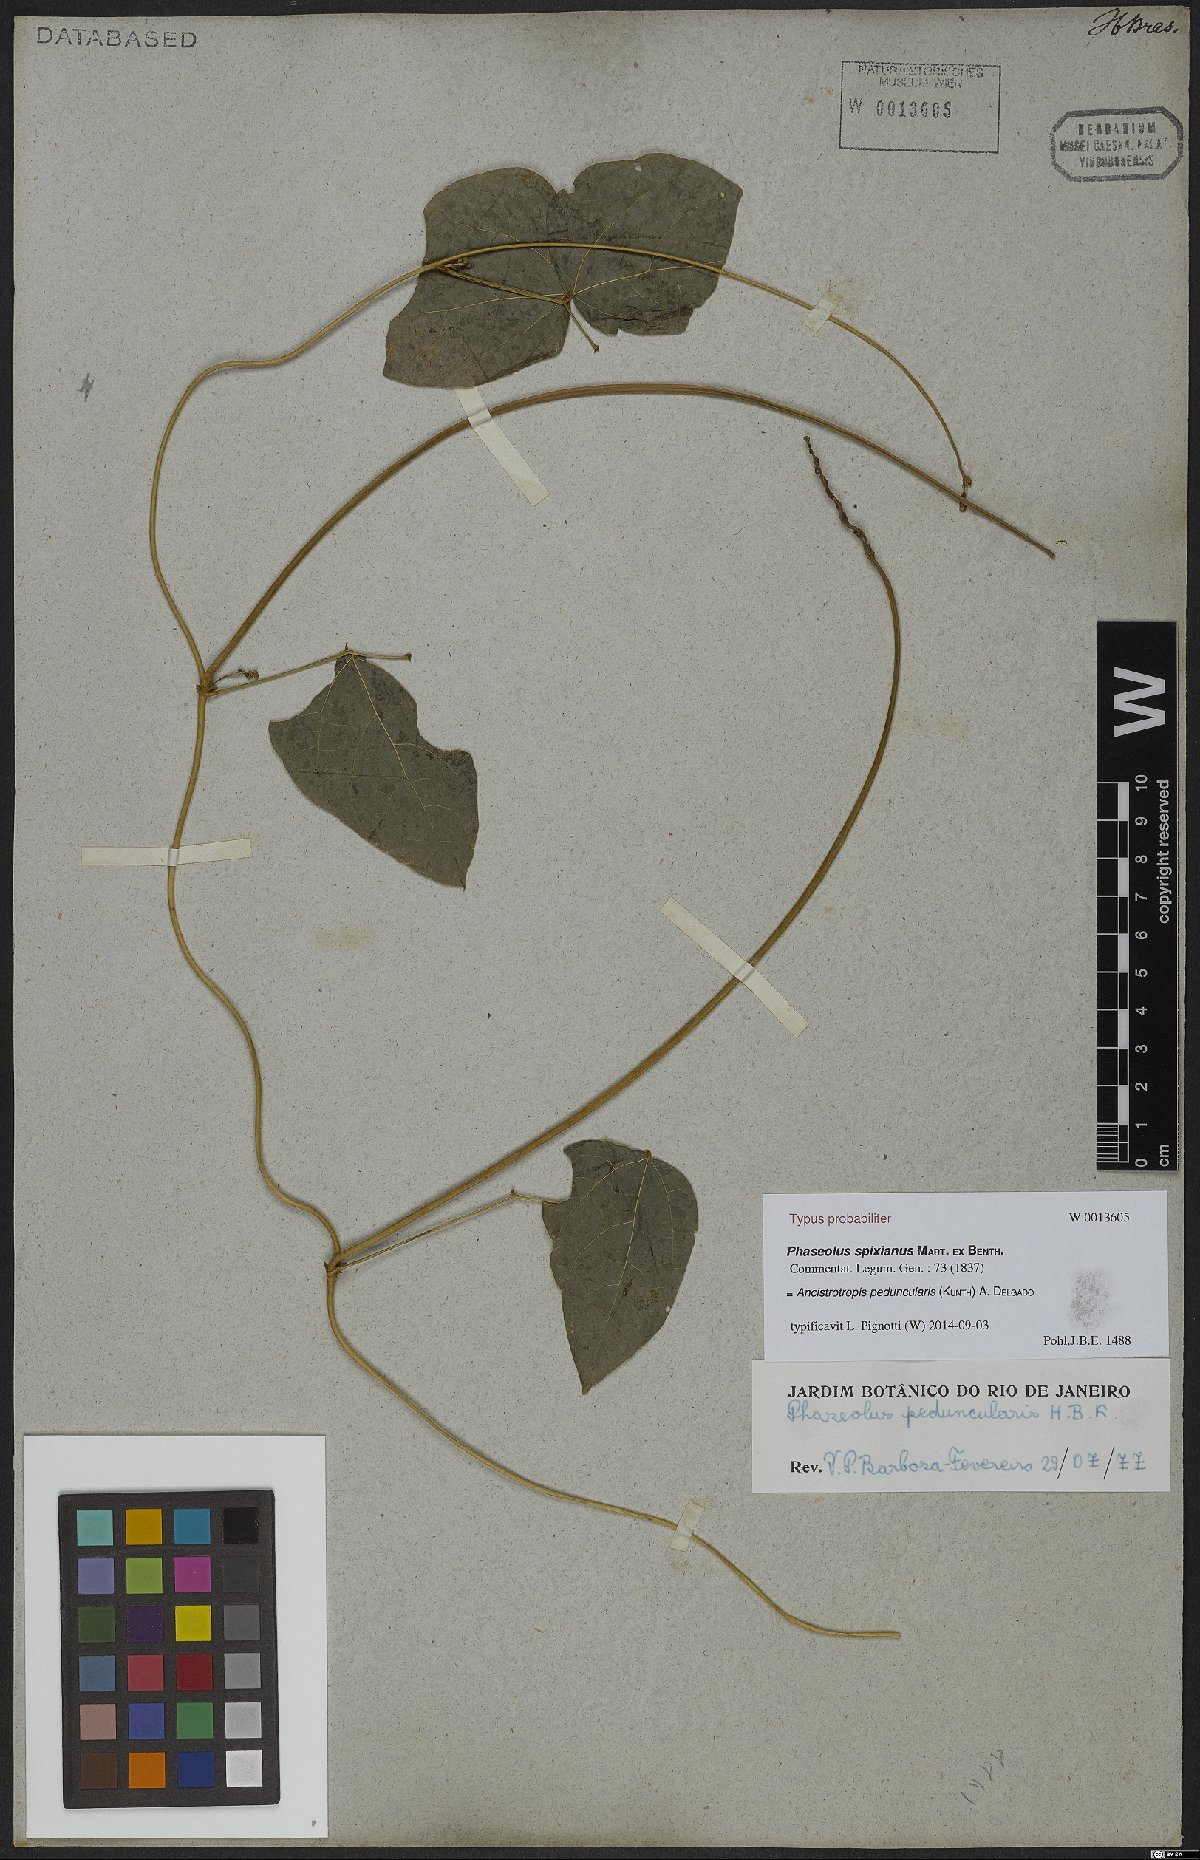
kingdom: Plantae
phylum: Tracheophyta
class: Magnoliopsida
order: Fabales
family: Fabaceae
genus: Ancistrotropis
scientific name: Ancistrotropis peduncularis
